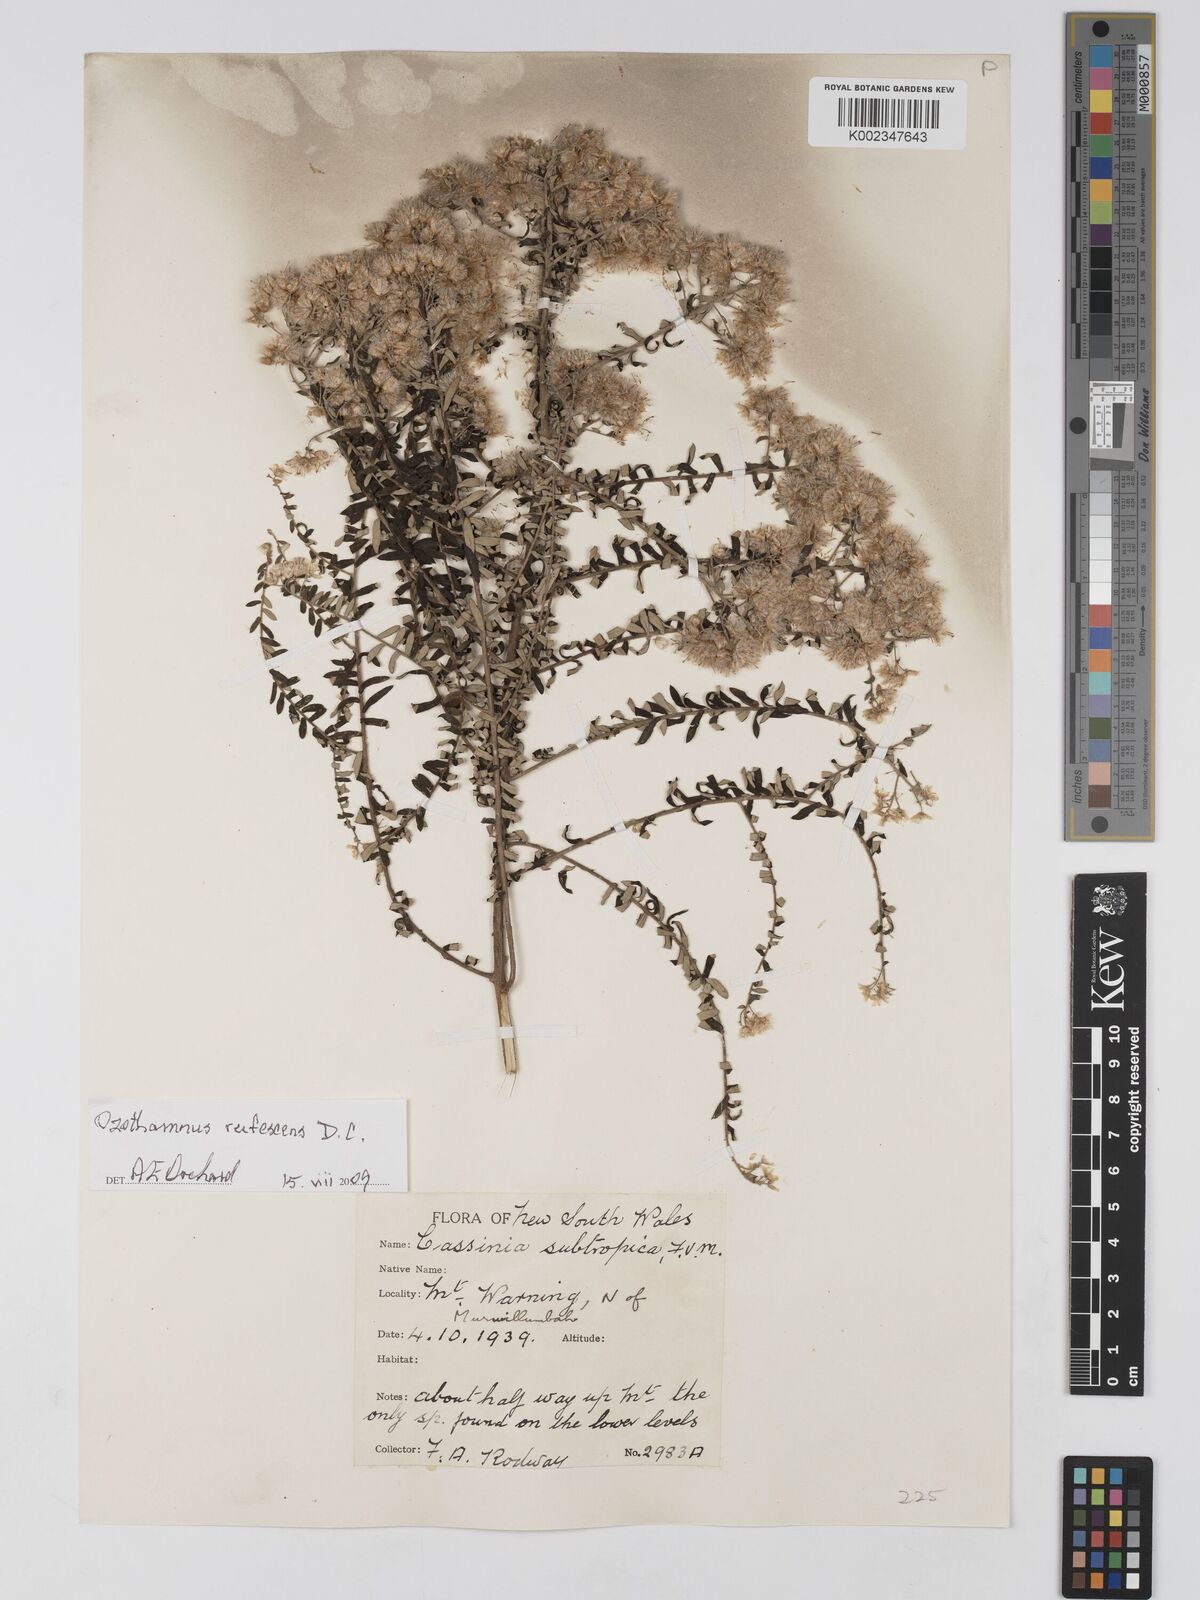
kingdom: Plantae
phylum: Tracheophyta
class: Magnoliopsida
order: Asterales
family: Asteraceae
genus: Ozothamnus
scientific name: Ozothamnus rufescens
